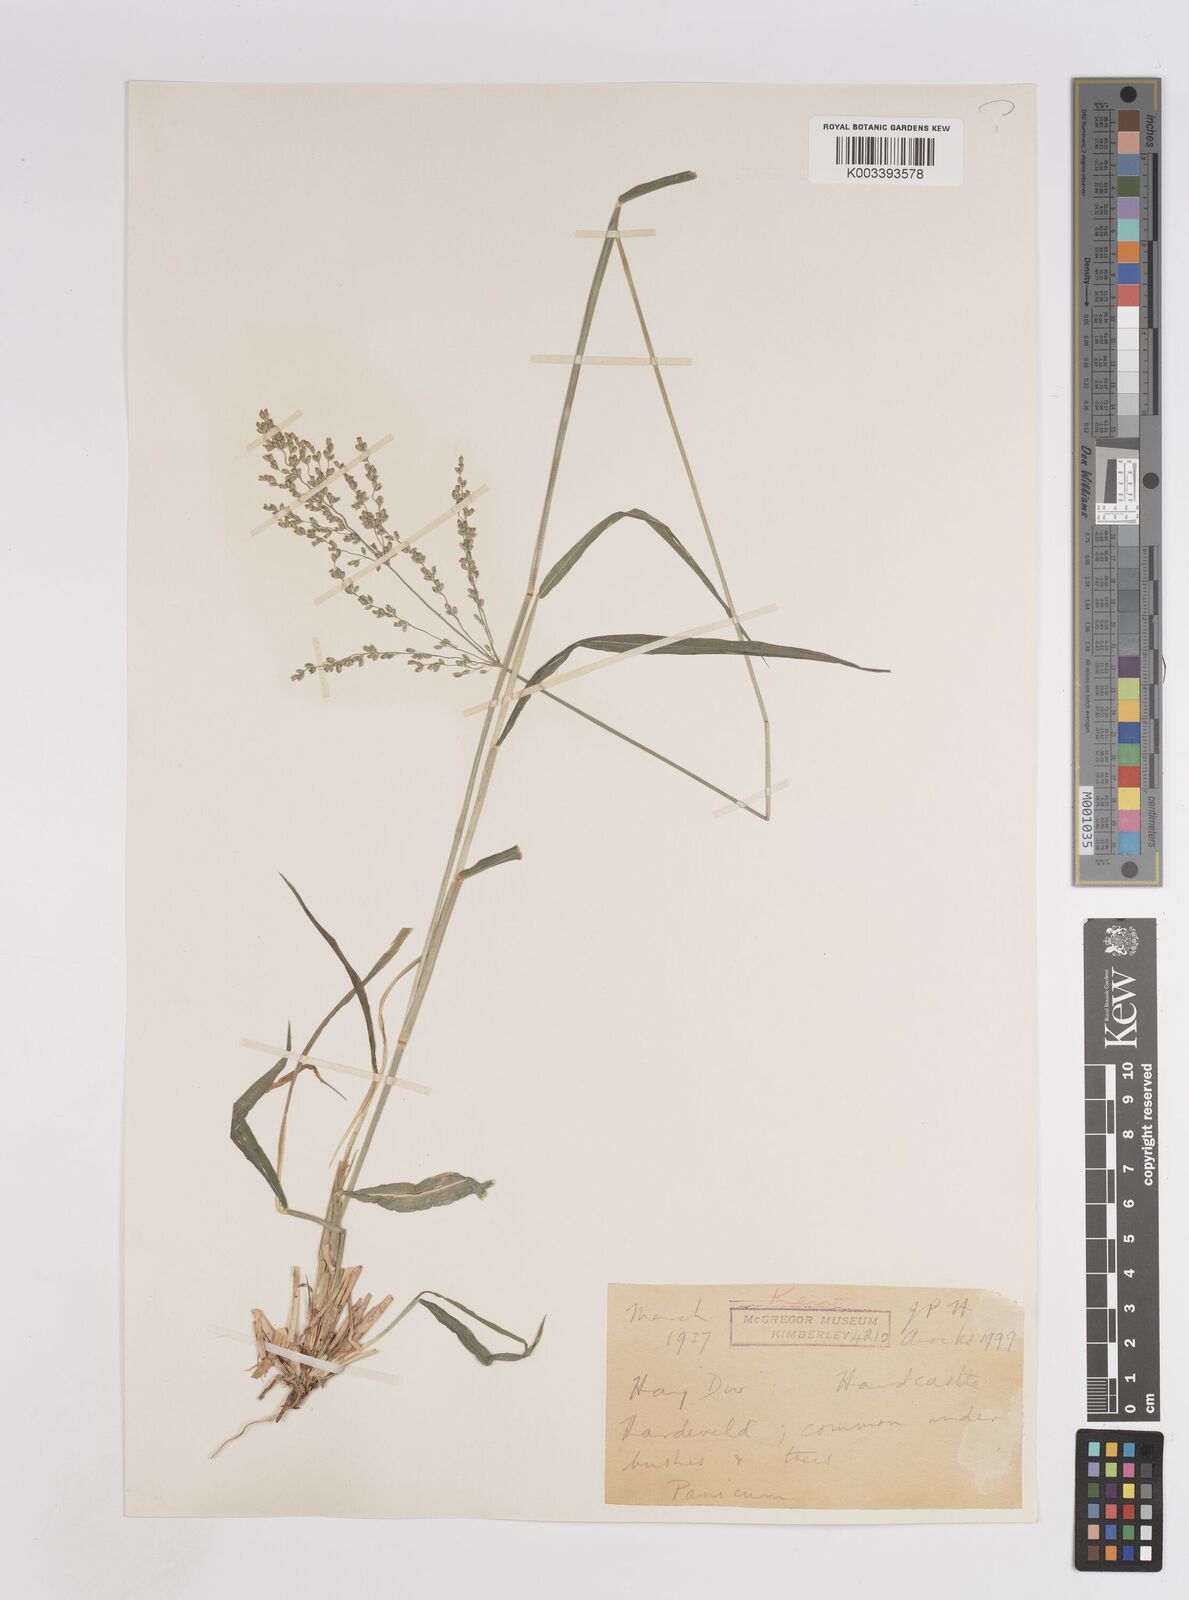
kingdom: Plantae
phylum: Tracheophyta
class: Liliopsida
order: Poales
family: Poaceae
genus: Megathyrsus
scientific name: Megathyrsus maximus
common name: Guineagrass
